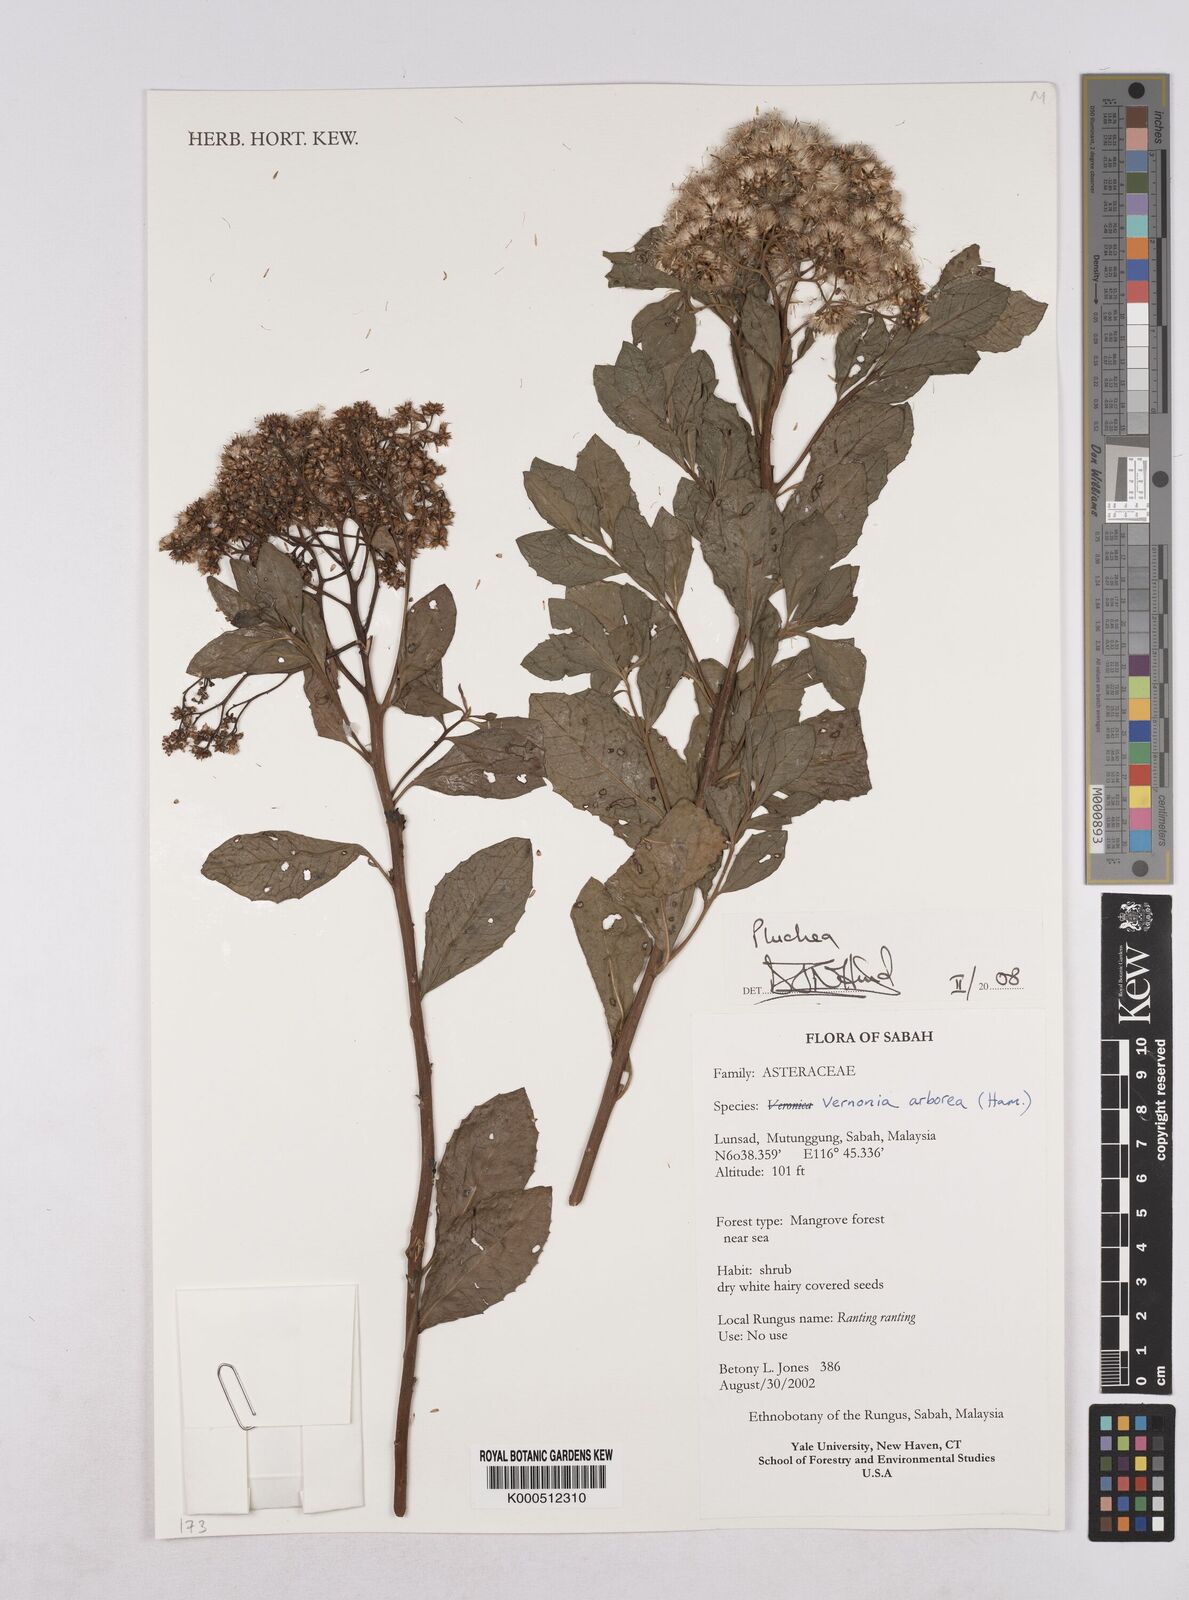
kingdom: Plantae
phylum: Tracheophyta
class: Magnoliopsida
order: Asterales
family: Asteraceae
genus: Pluchea
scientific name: Pluchea
